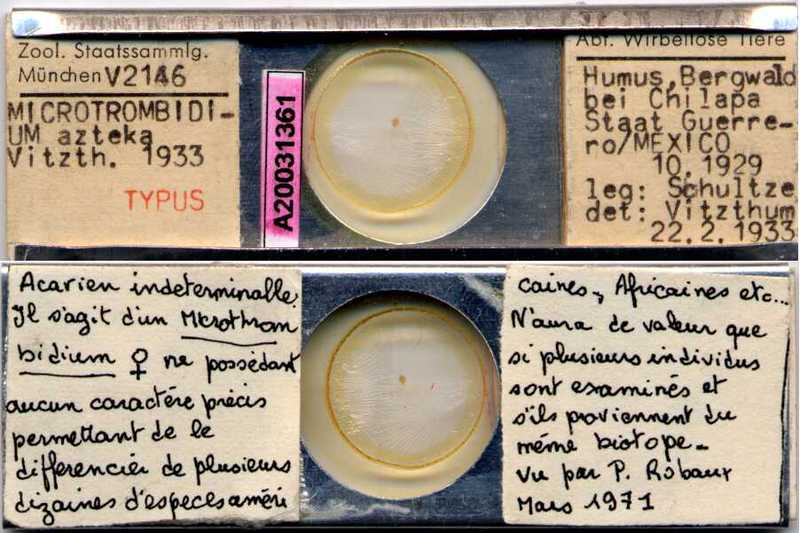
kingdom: Animalia
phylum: Arthropoda
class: Arachnida
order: Trombidiformes
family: Trombidiidae
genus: Microtrombidium
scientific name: Microtrombidium
